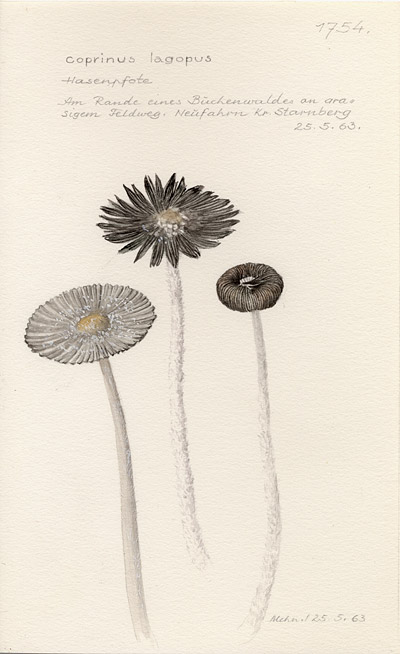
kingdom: Fungi
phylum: Basidiomycota
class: Agaricomycetes
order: Agaricales
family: Psathyrellaceae
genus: Coprinopsis
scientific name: Coprinopsis lagopus
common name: Hare'sfoot inkcap
